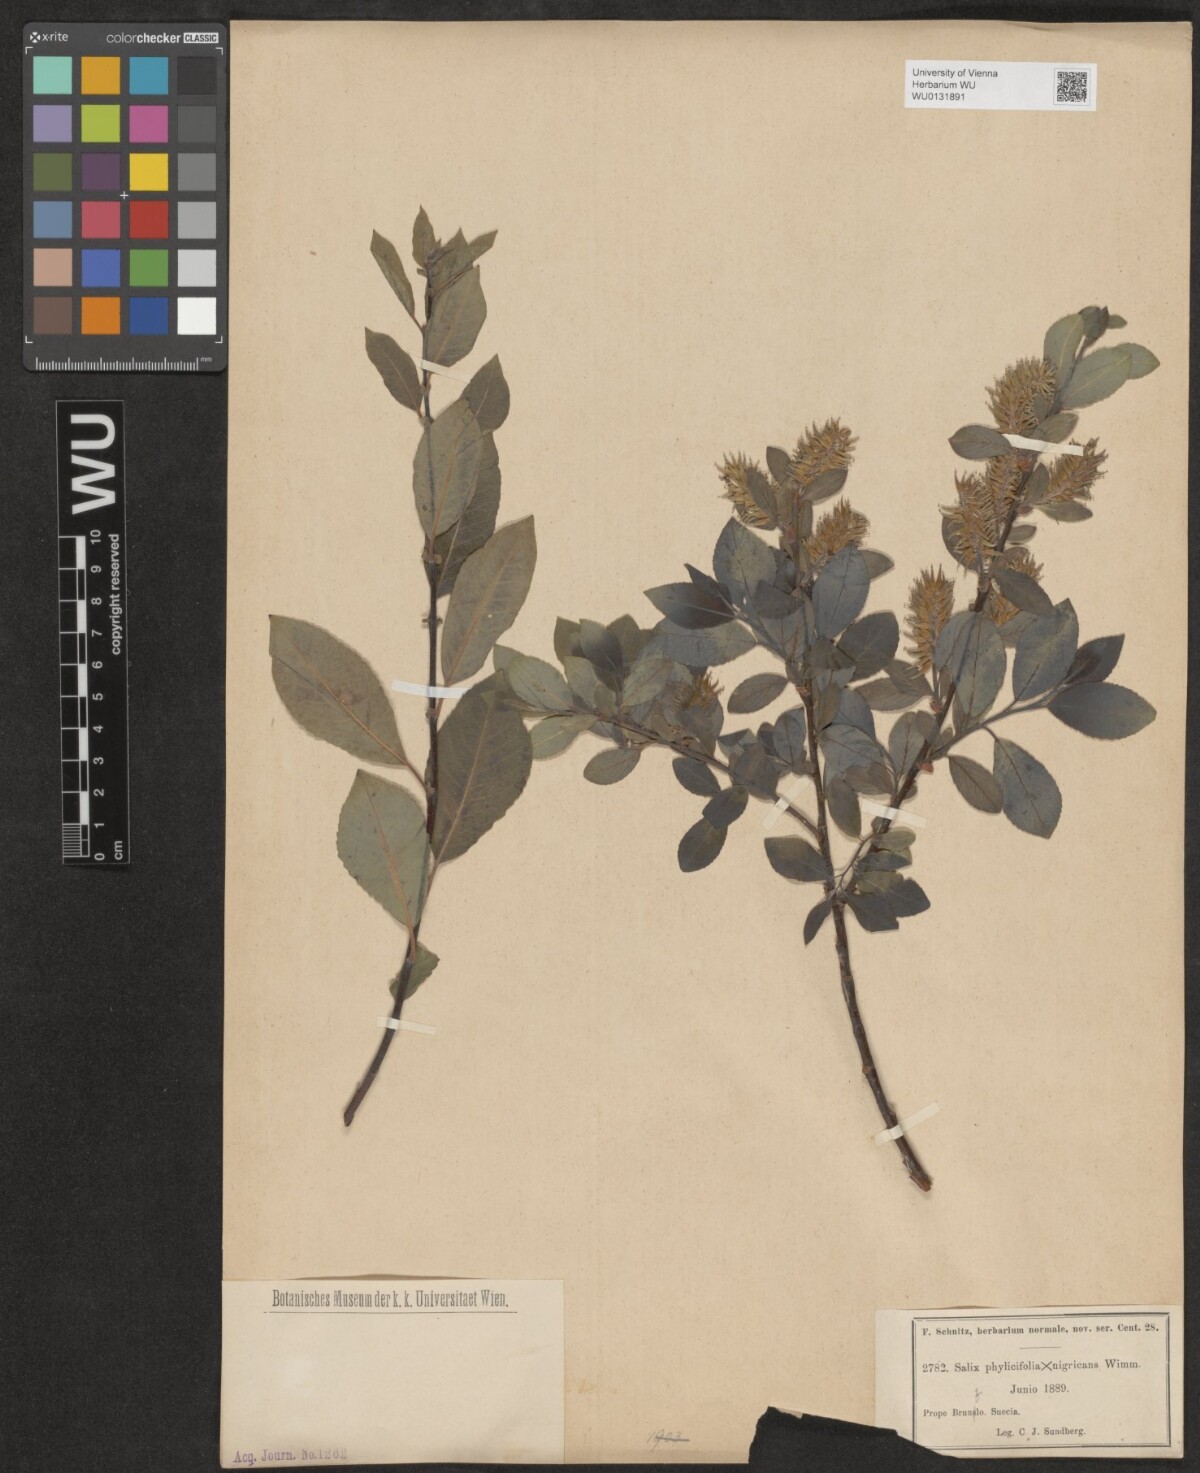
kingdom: Plantae
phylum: Tracheophyta
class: Magnoliopsida
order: Malpighiales
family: Salicaceae
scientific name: Salicaceae
